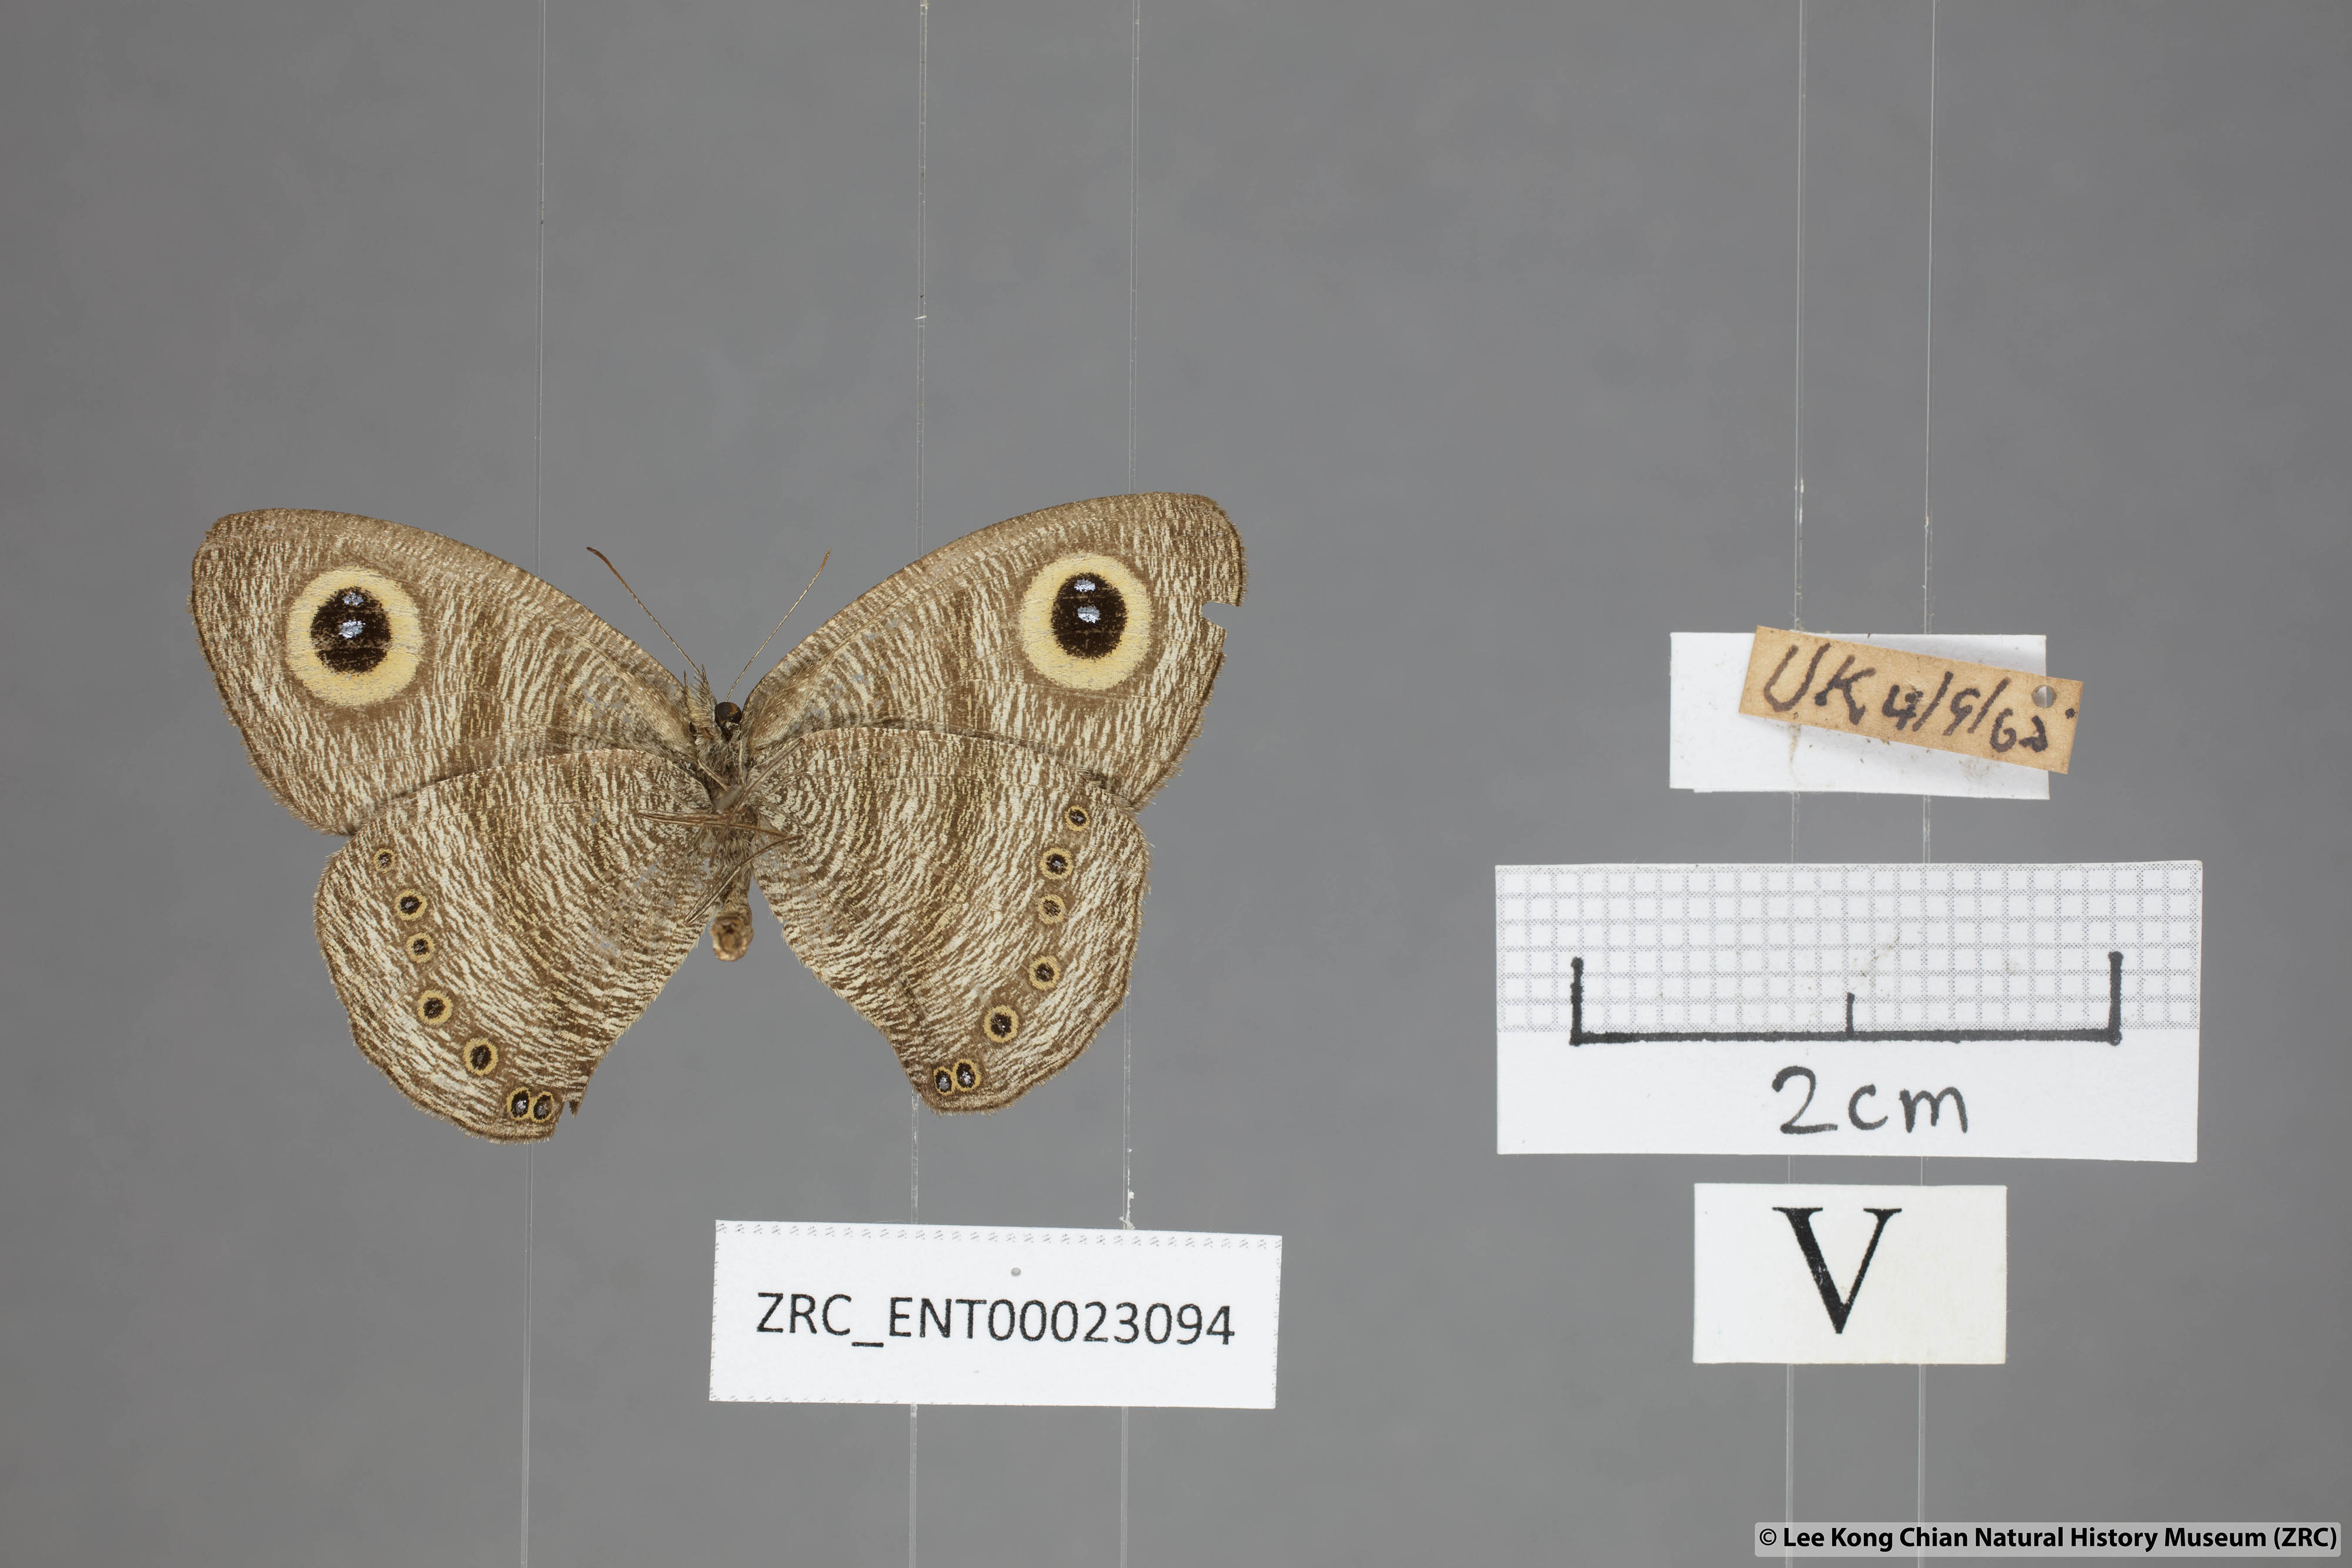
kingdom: Animalia
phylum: Arthropoda
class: Insecta
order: Lepidoptera
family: Nymphalidae
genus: Ypthima
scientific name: Ypthima fasciata
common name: Malayan six-ring
